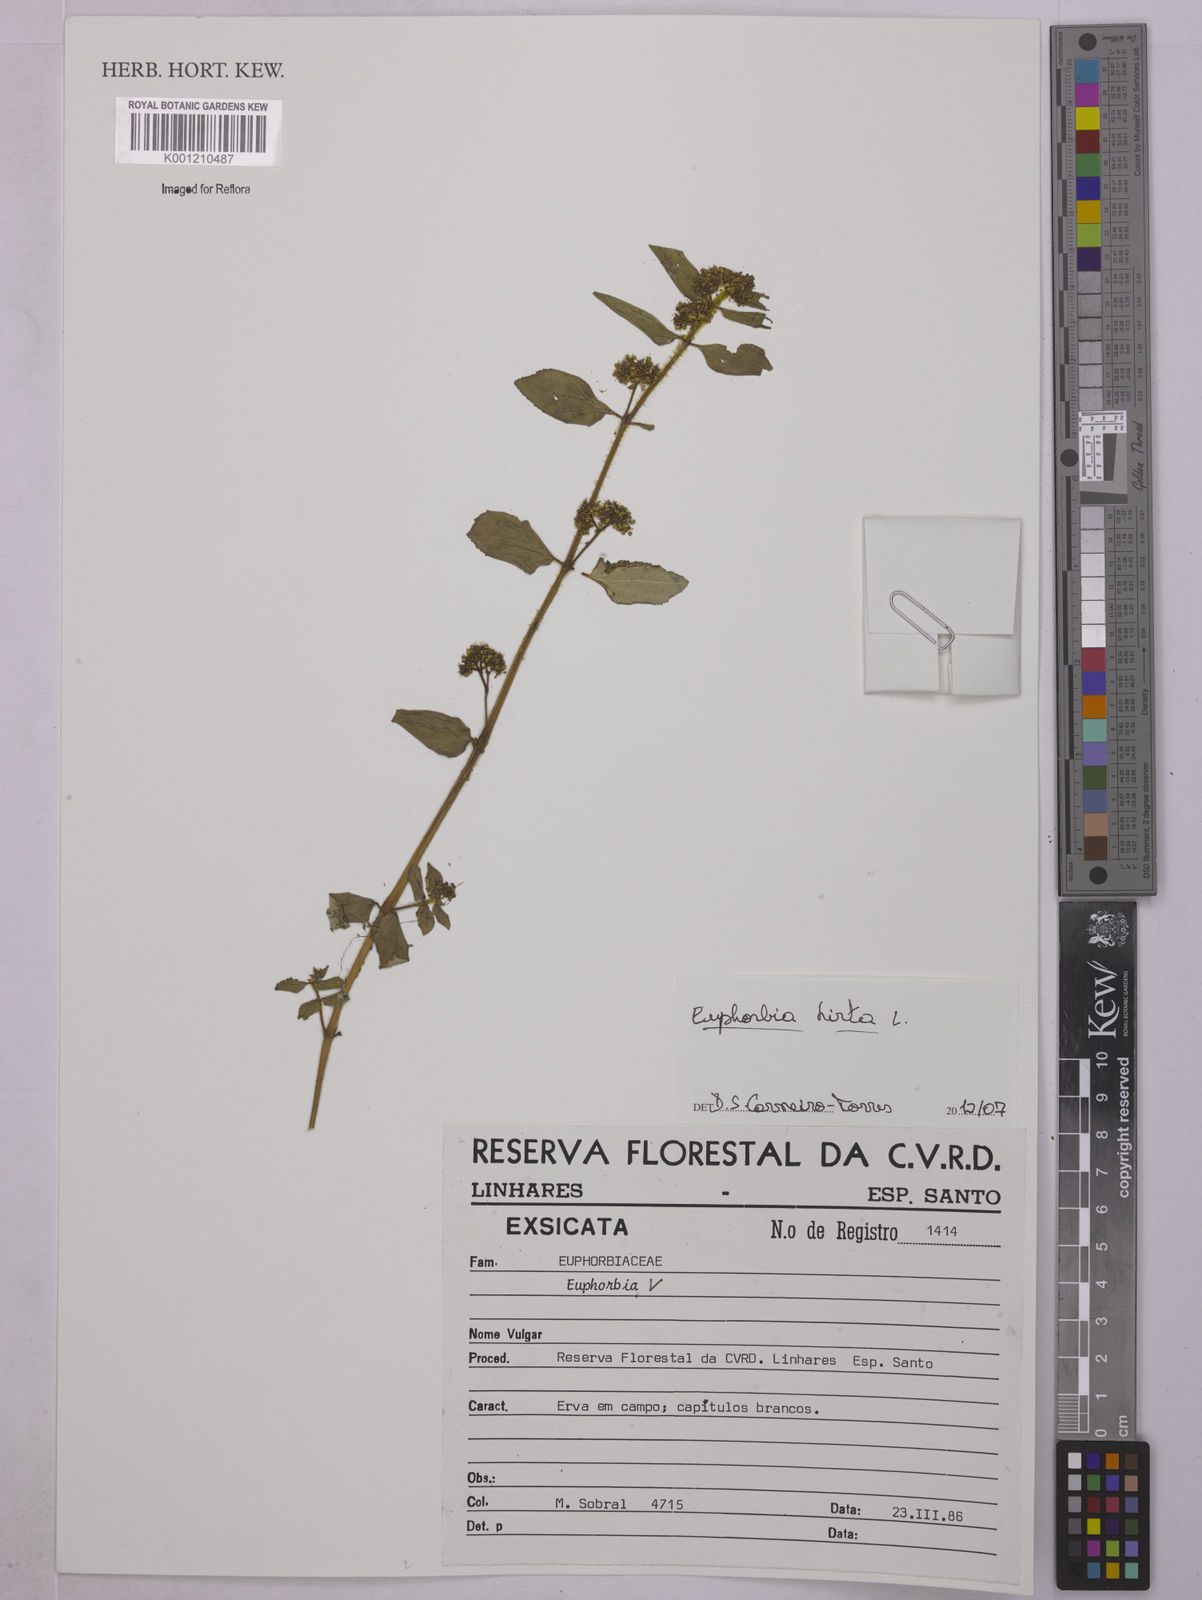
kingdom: Plantae
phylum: Tracheophyta
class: Magnoliopsida
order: Malpighiales
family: Euphorbiaceae
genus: Euphorbia
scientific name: Euphorbia hirta
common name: Pillpod sandmat
